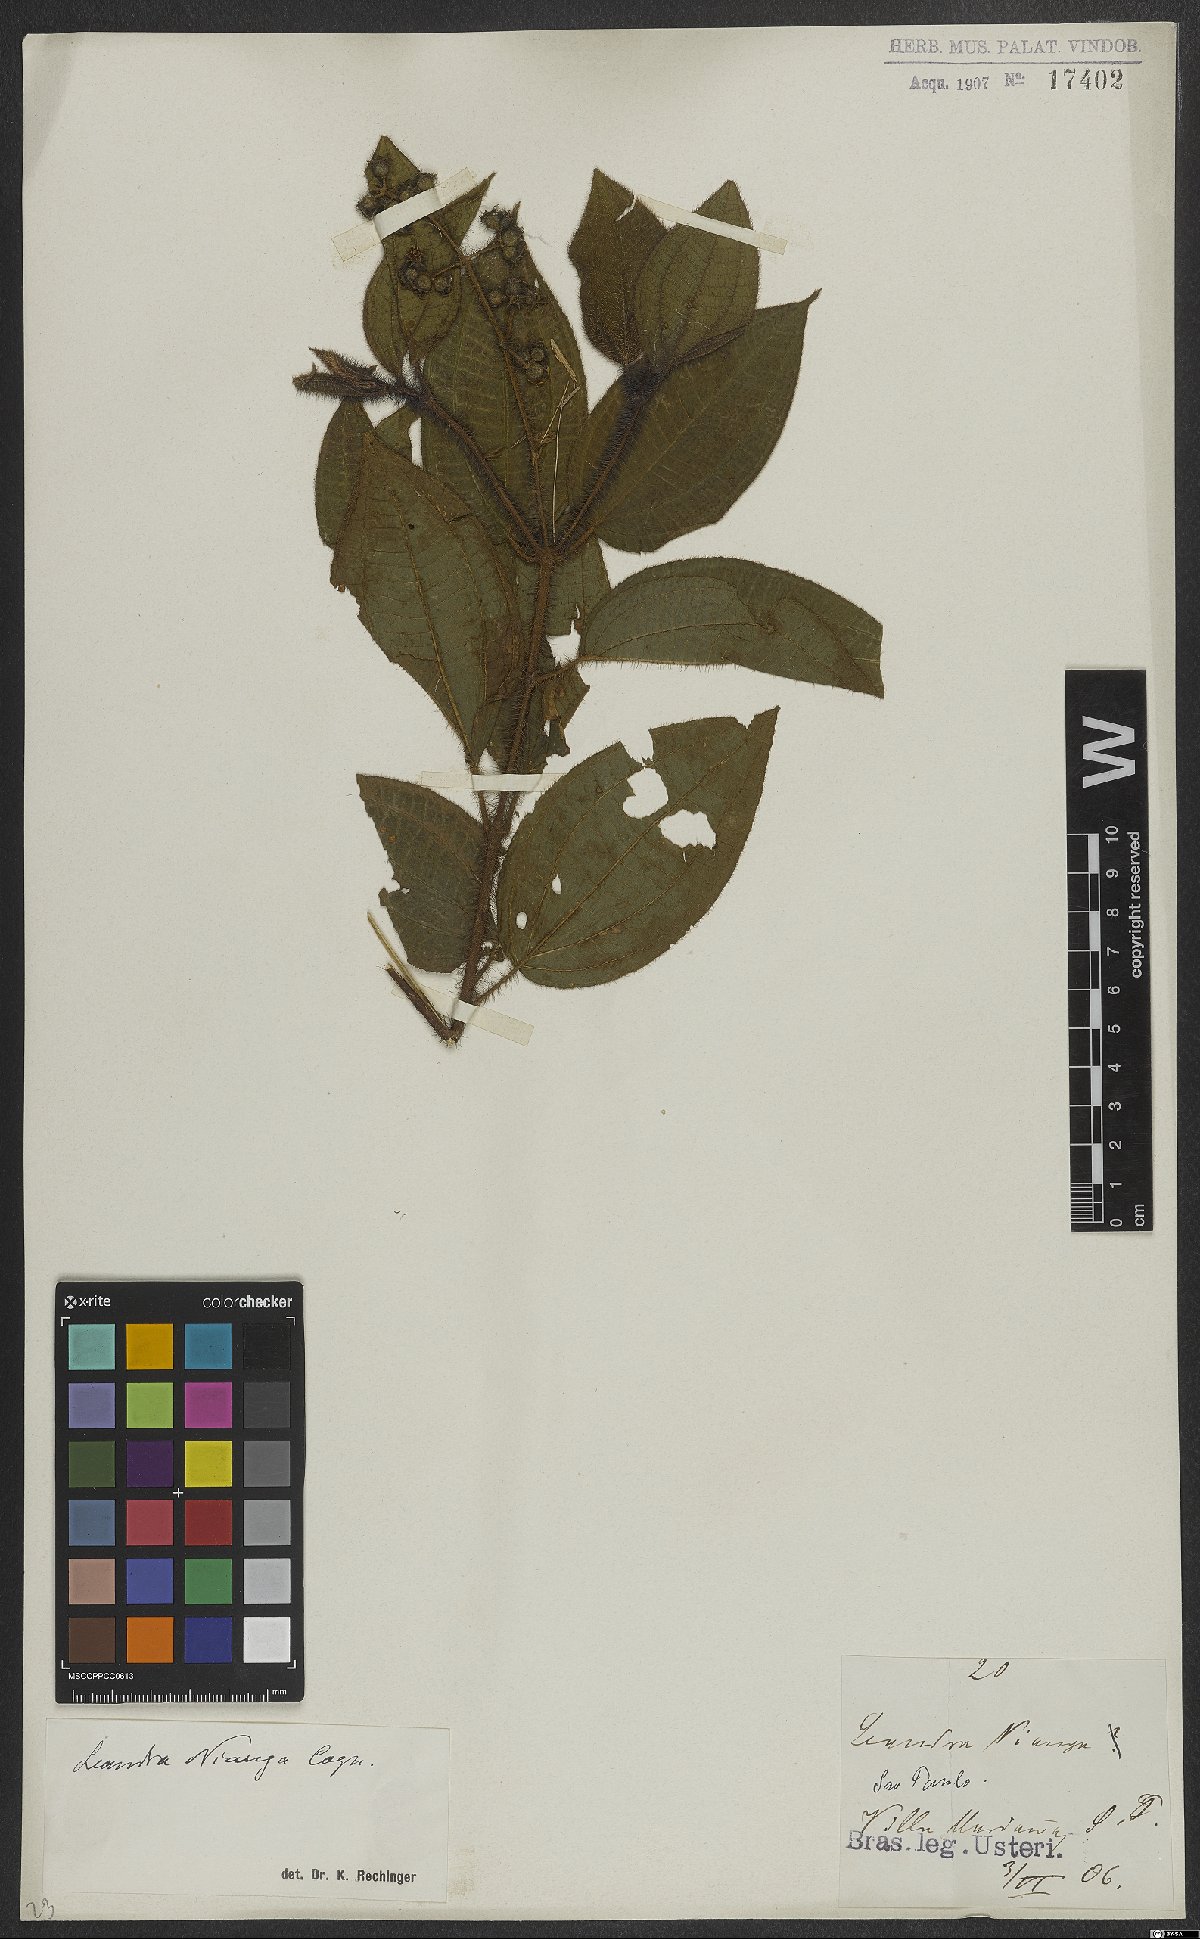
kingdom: Plantae
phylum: Tracheophyta
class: Magnoliopsida
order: Myrtales
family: Melastomataceae
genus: Miconia
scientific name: Miconia nianga
